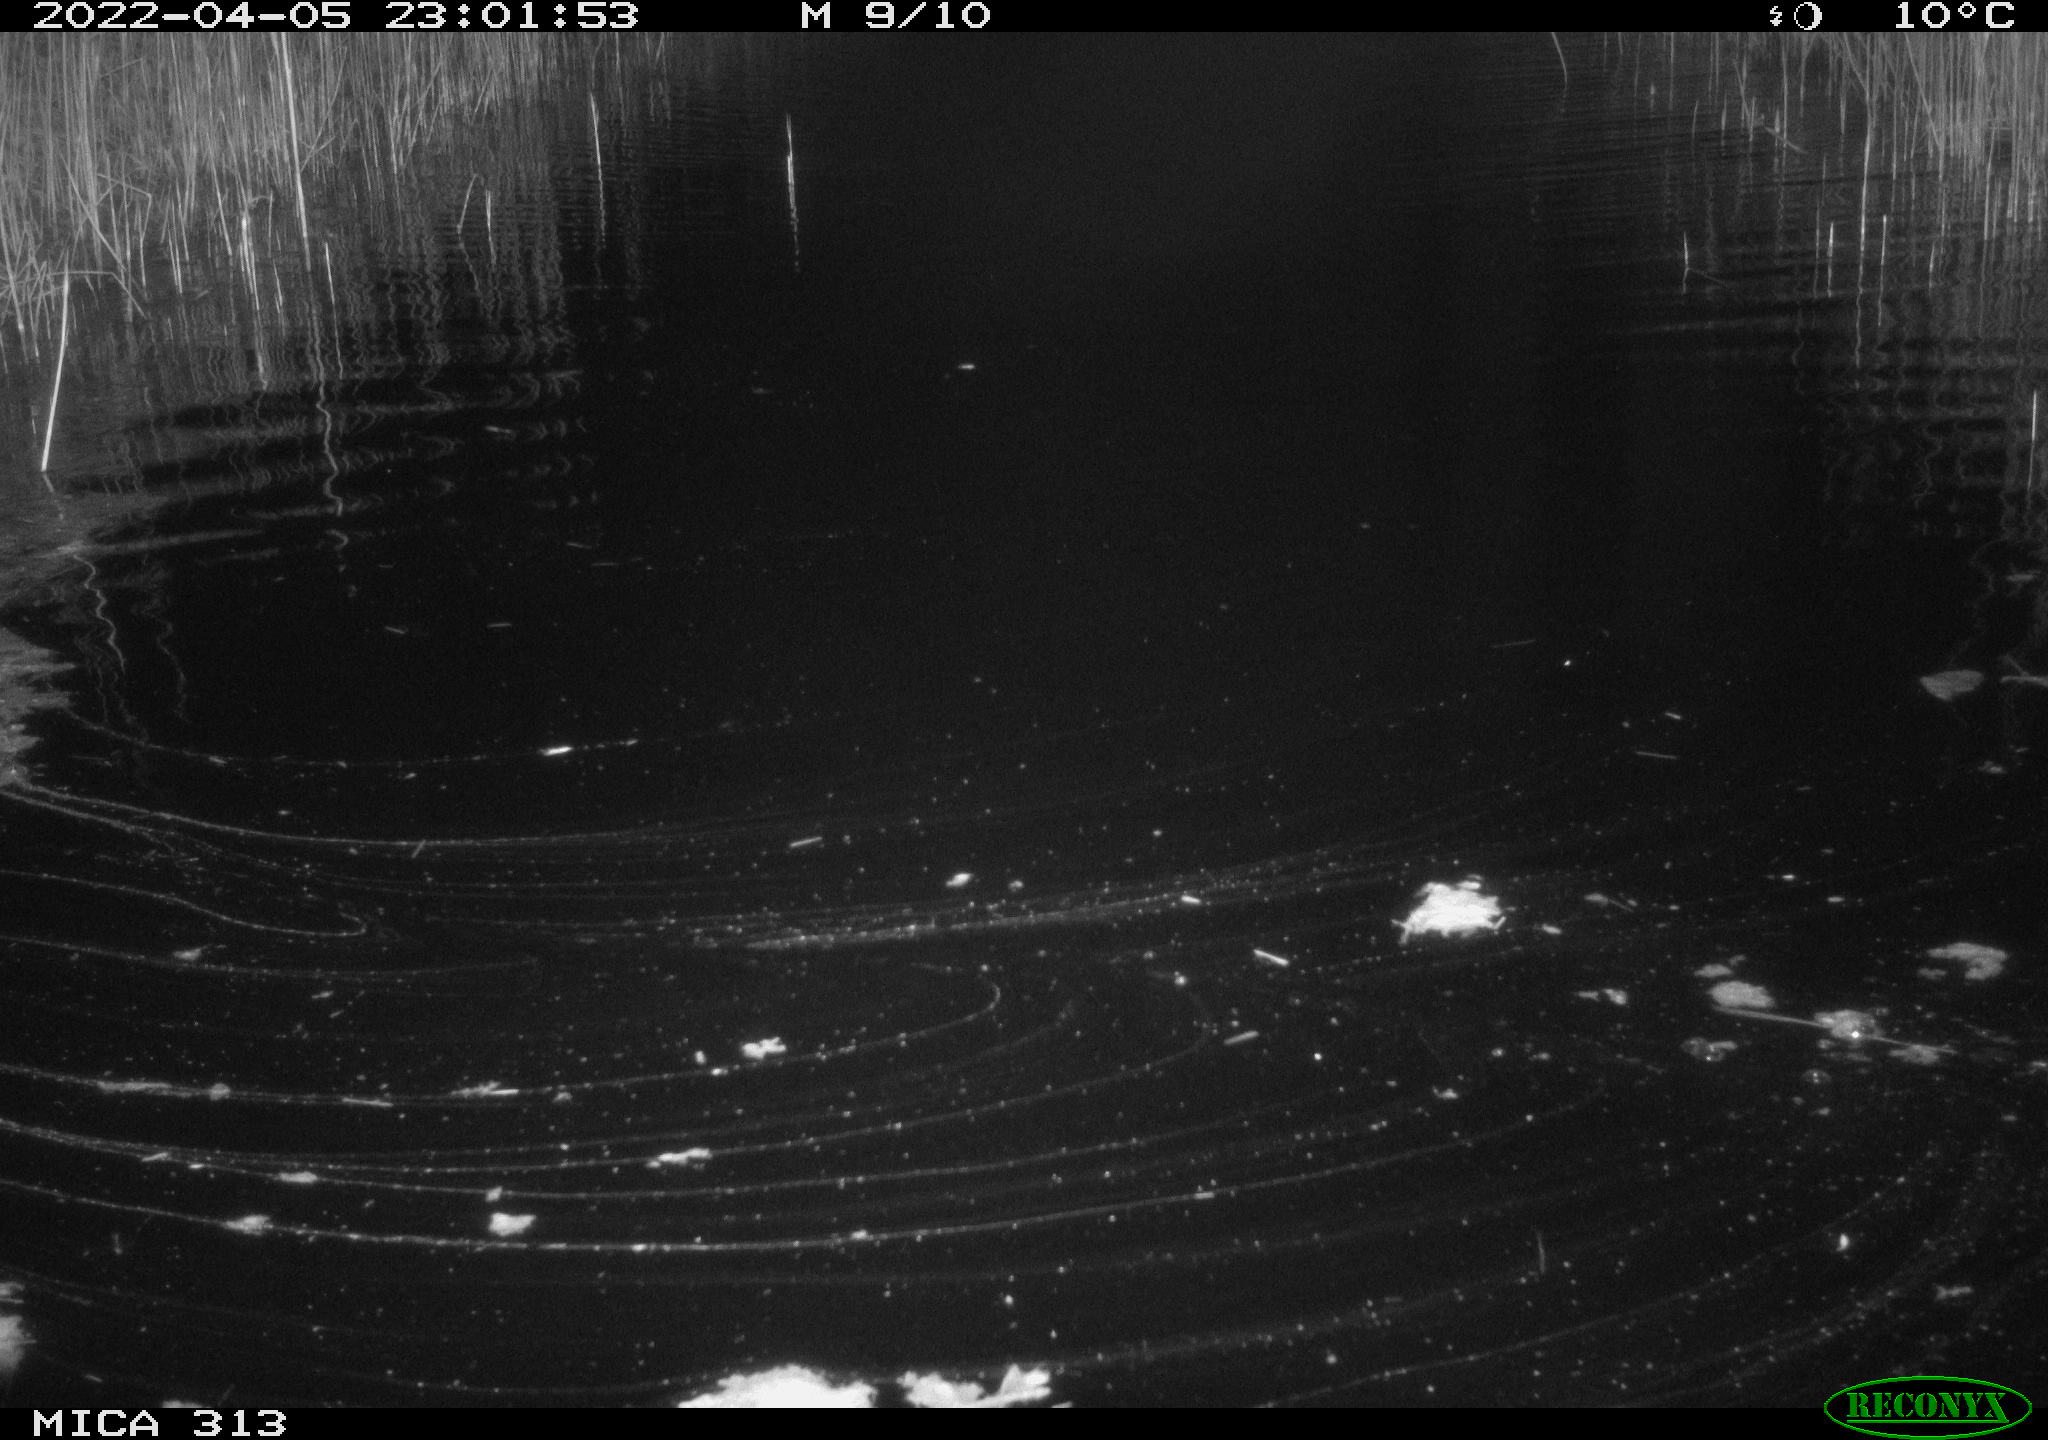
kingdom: Animalia
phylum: Chordata
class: Mammalia
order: Rodentia
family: Muridae
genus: Rattus
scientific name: Rattus norvegicus
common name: Brown rat
